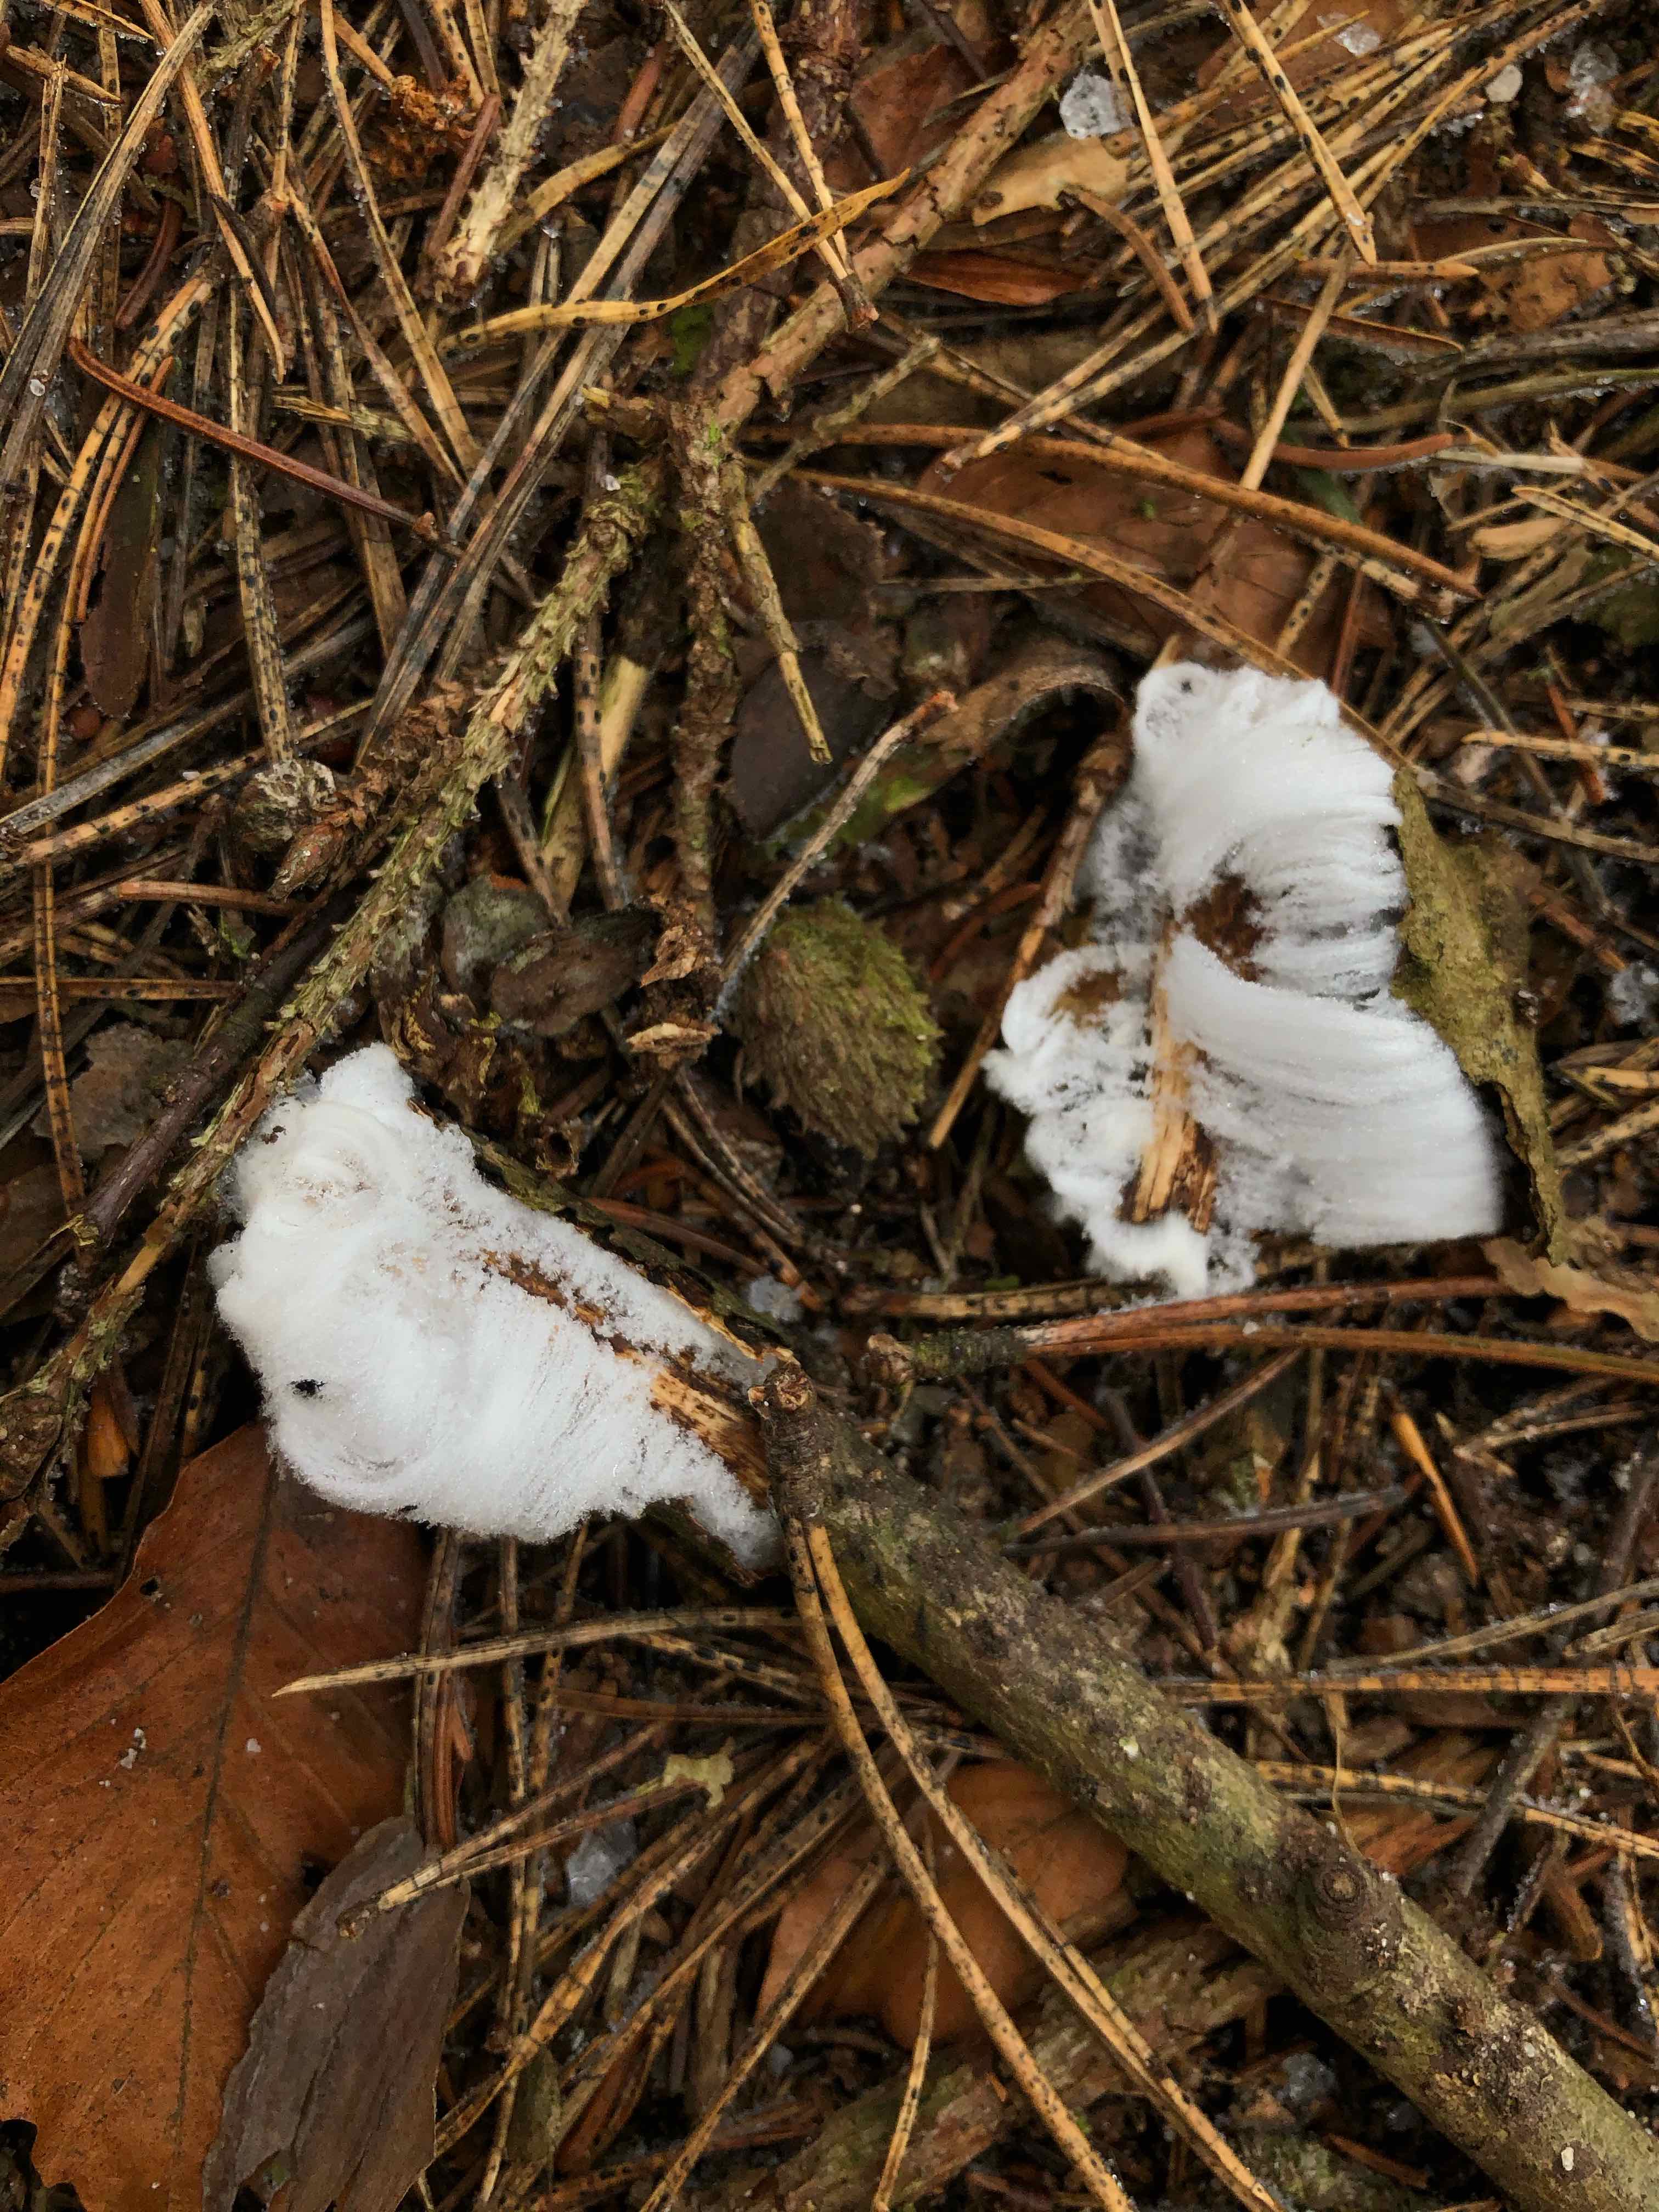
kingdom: Fungi
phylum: Basidiomycota
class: Tremellomycetes
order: Tremellales
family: Exidiaceae
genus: Exidiopsis
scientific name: Exidiopsis effusa
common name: smuk bævrehinde
